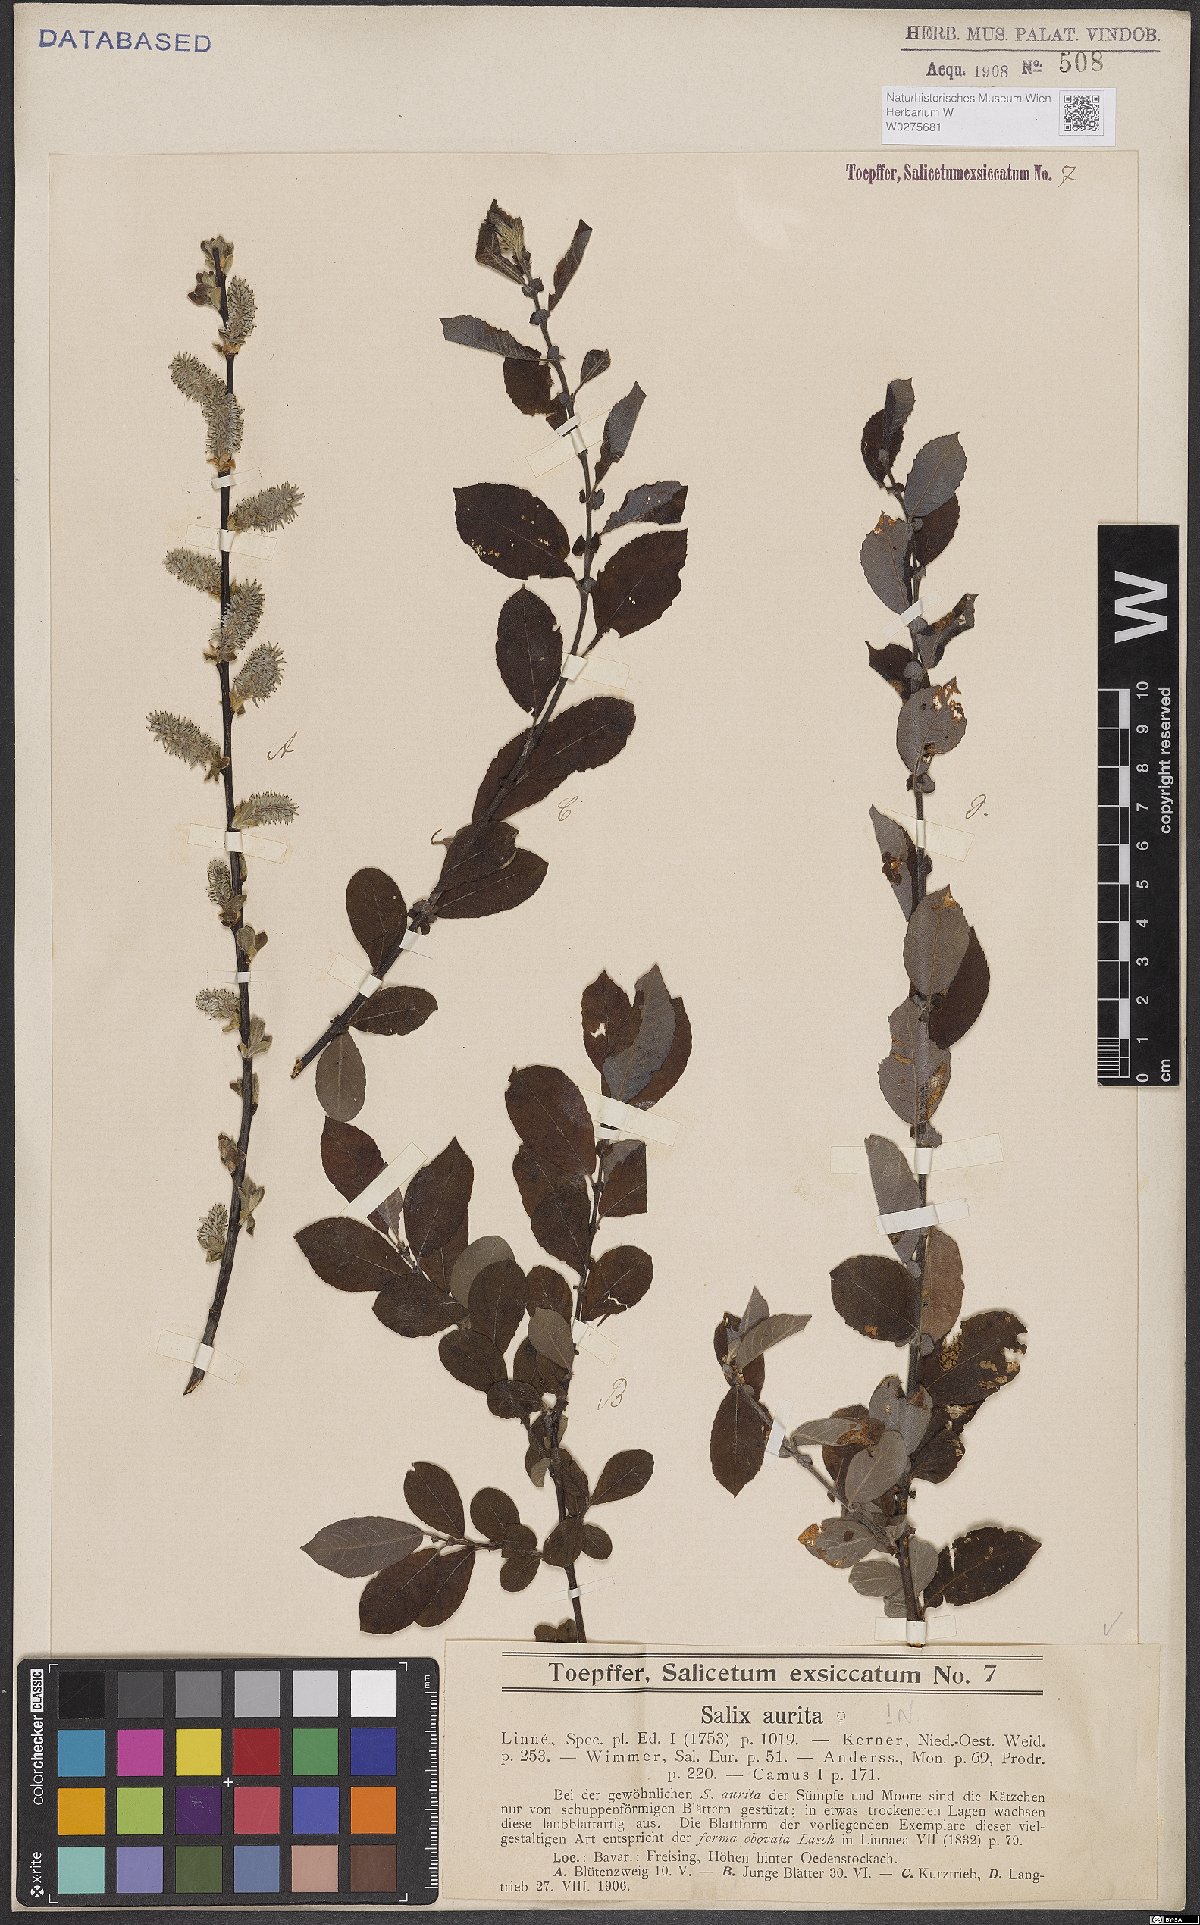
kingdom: Plantae
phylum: Tracheophyta
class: Magnoliopsida
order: Malpighiales
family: Salicaceae
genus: Salix
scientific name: Salix aurita
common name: Eared willow
